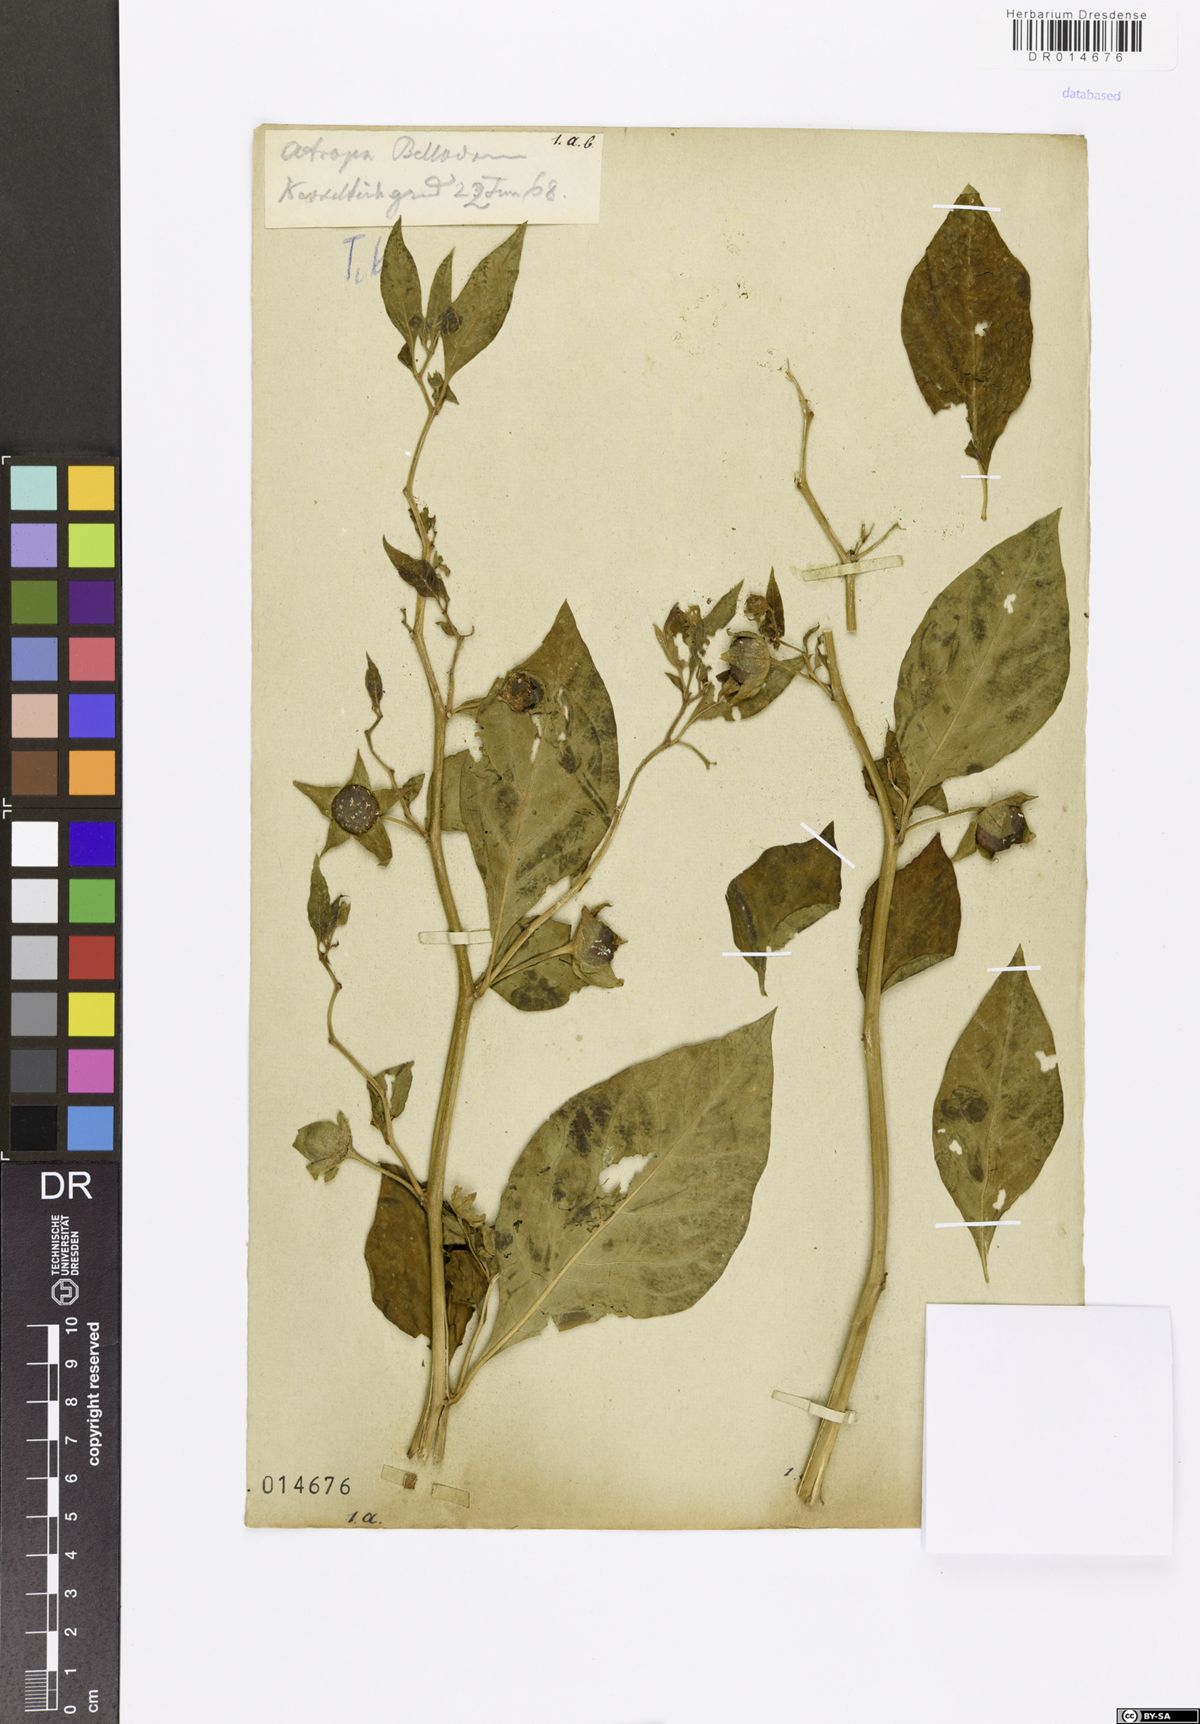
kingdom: Plantae
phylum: Tracheophyta
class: Magnoliopsida
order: Solanales
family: Solanaceae
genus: Atropa
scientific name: Atropa belladonna
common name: Deadly nightshade
